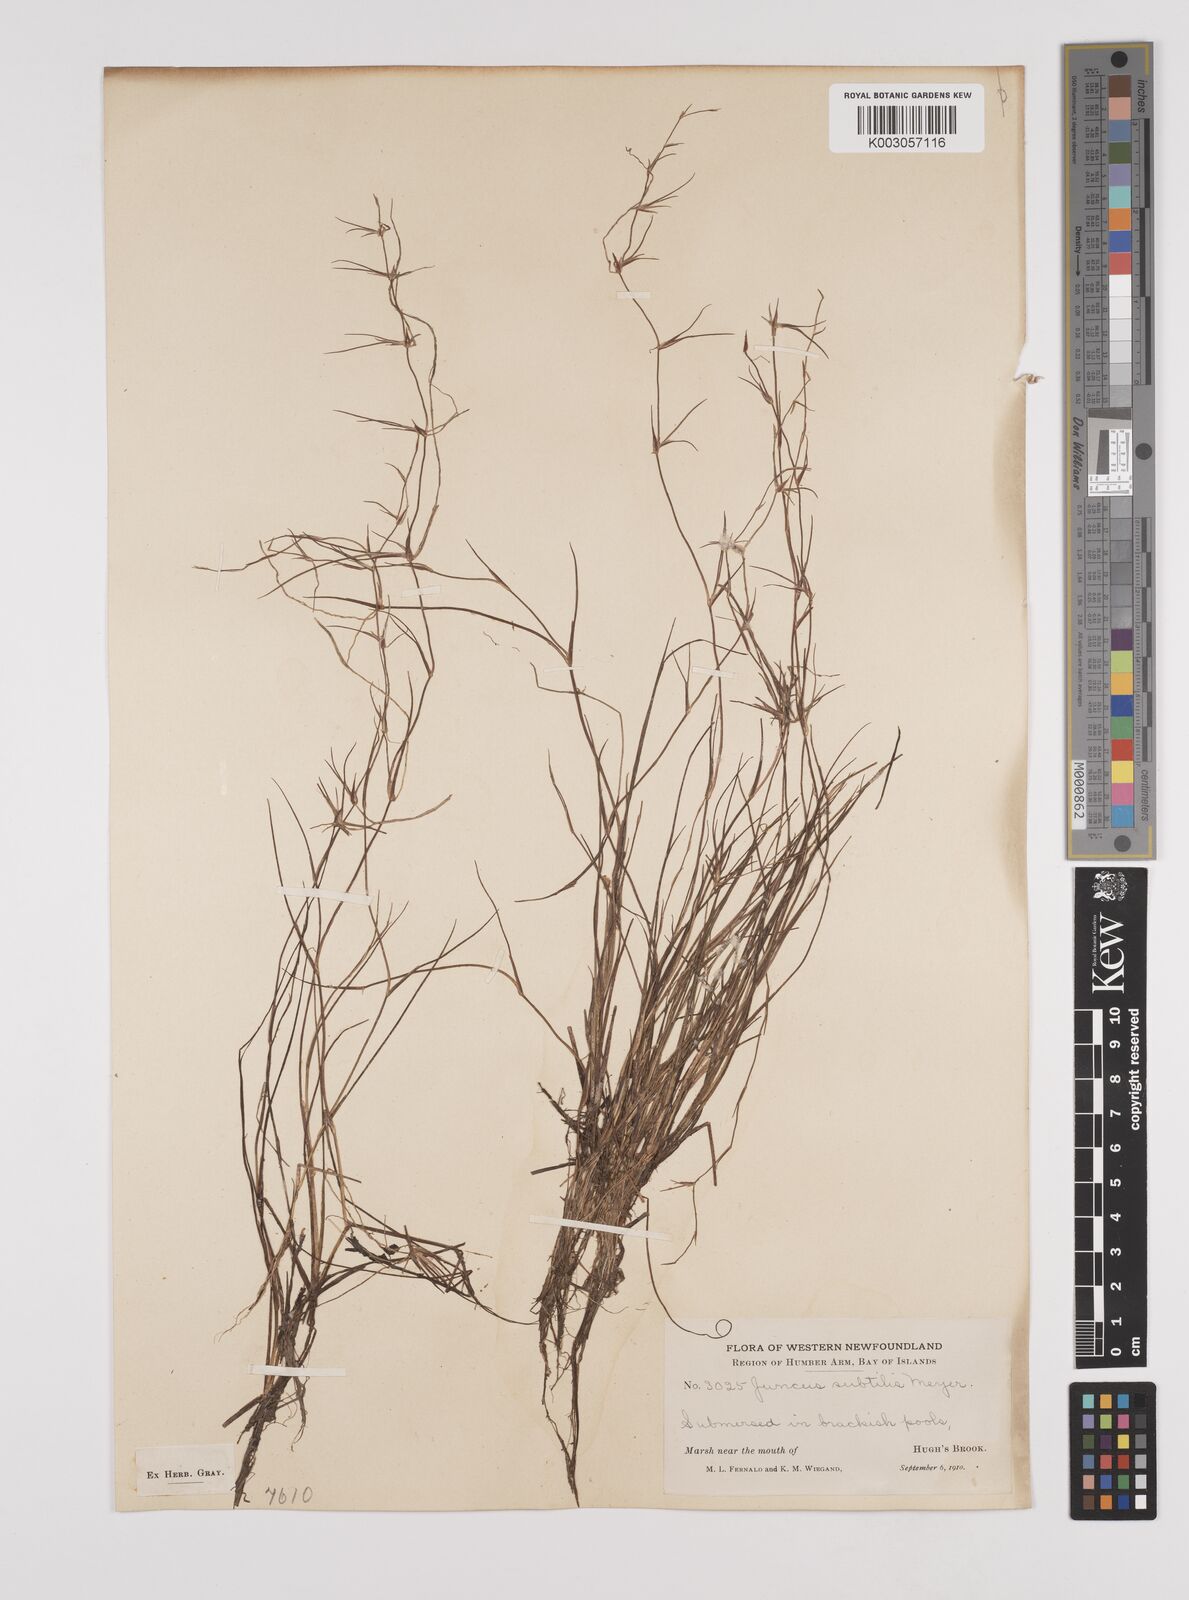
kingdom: Plantae
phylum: Tracheophyta
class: Liliopsida
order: Poales
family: Juncaceae
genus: Juncus
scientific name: Juncus subtilis
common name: Creeping rush
